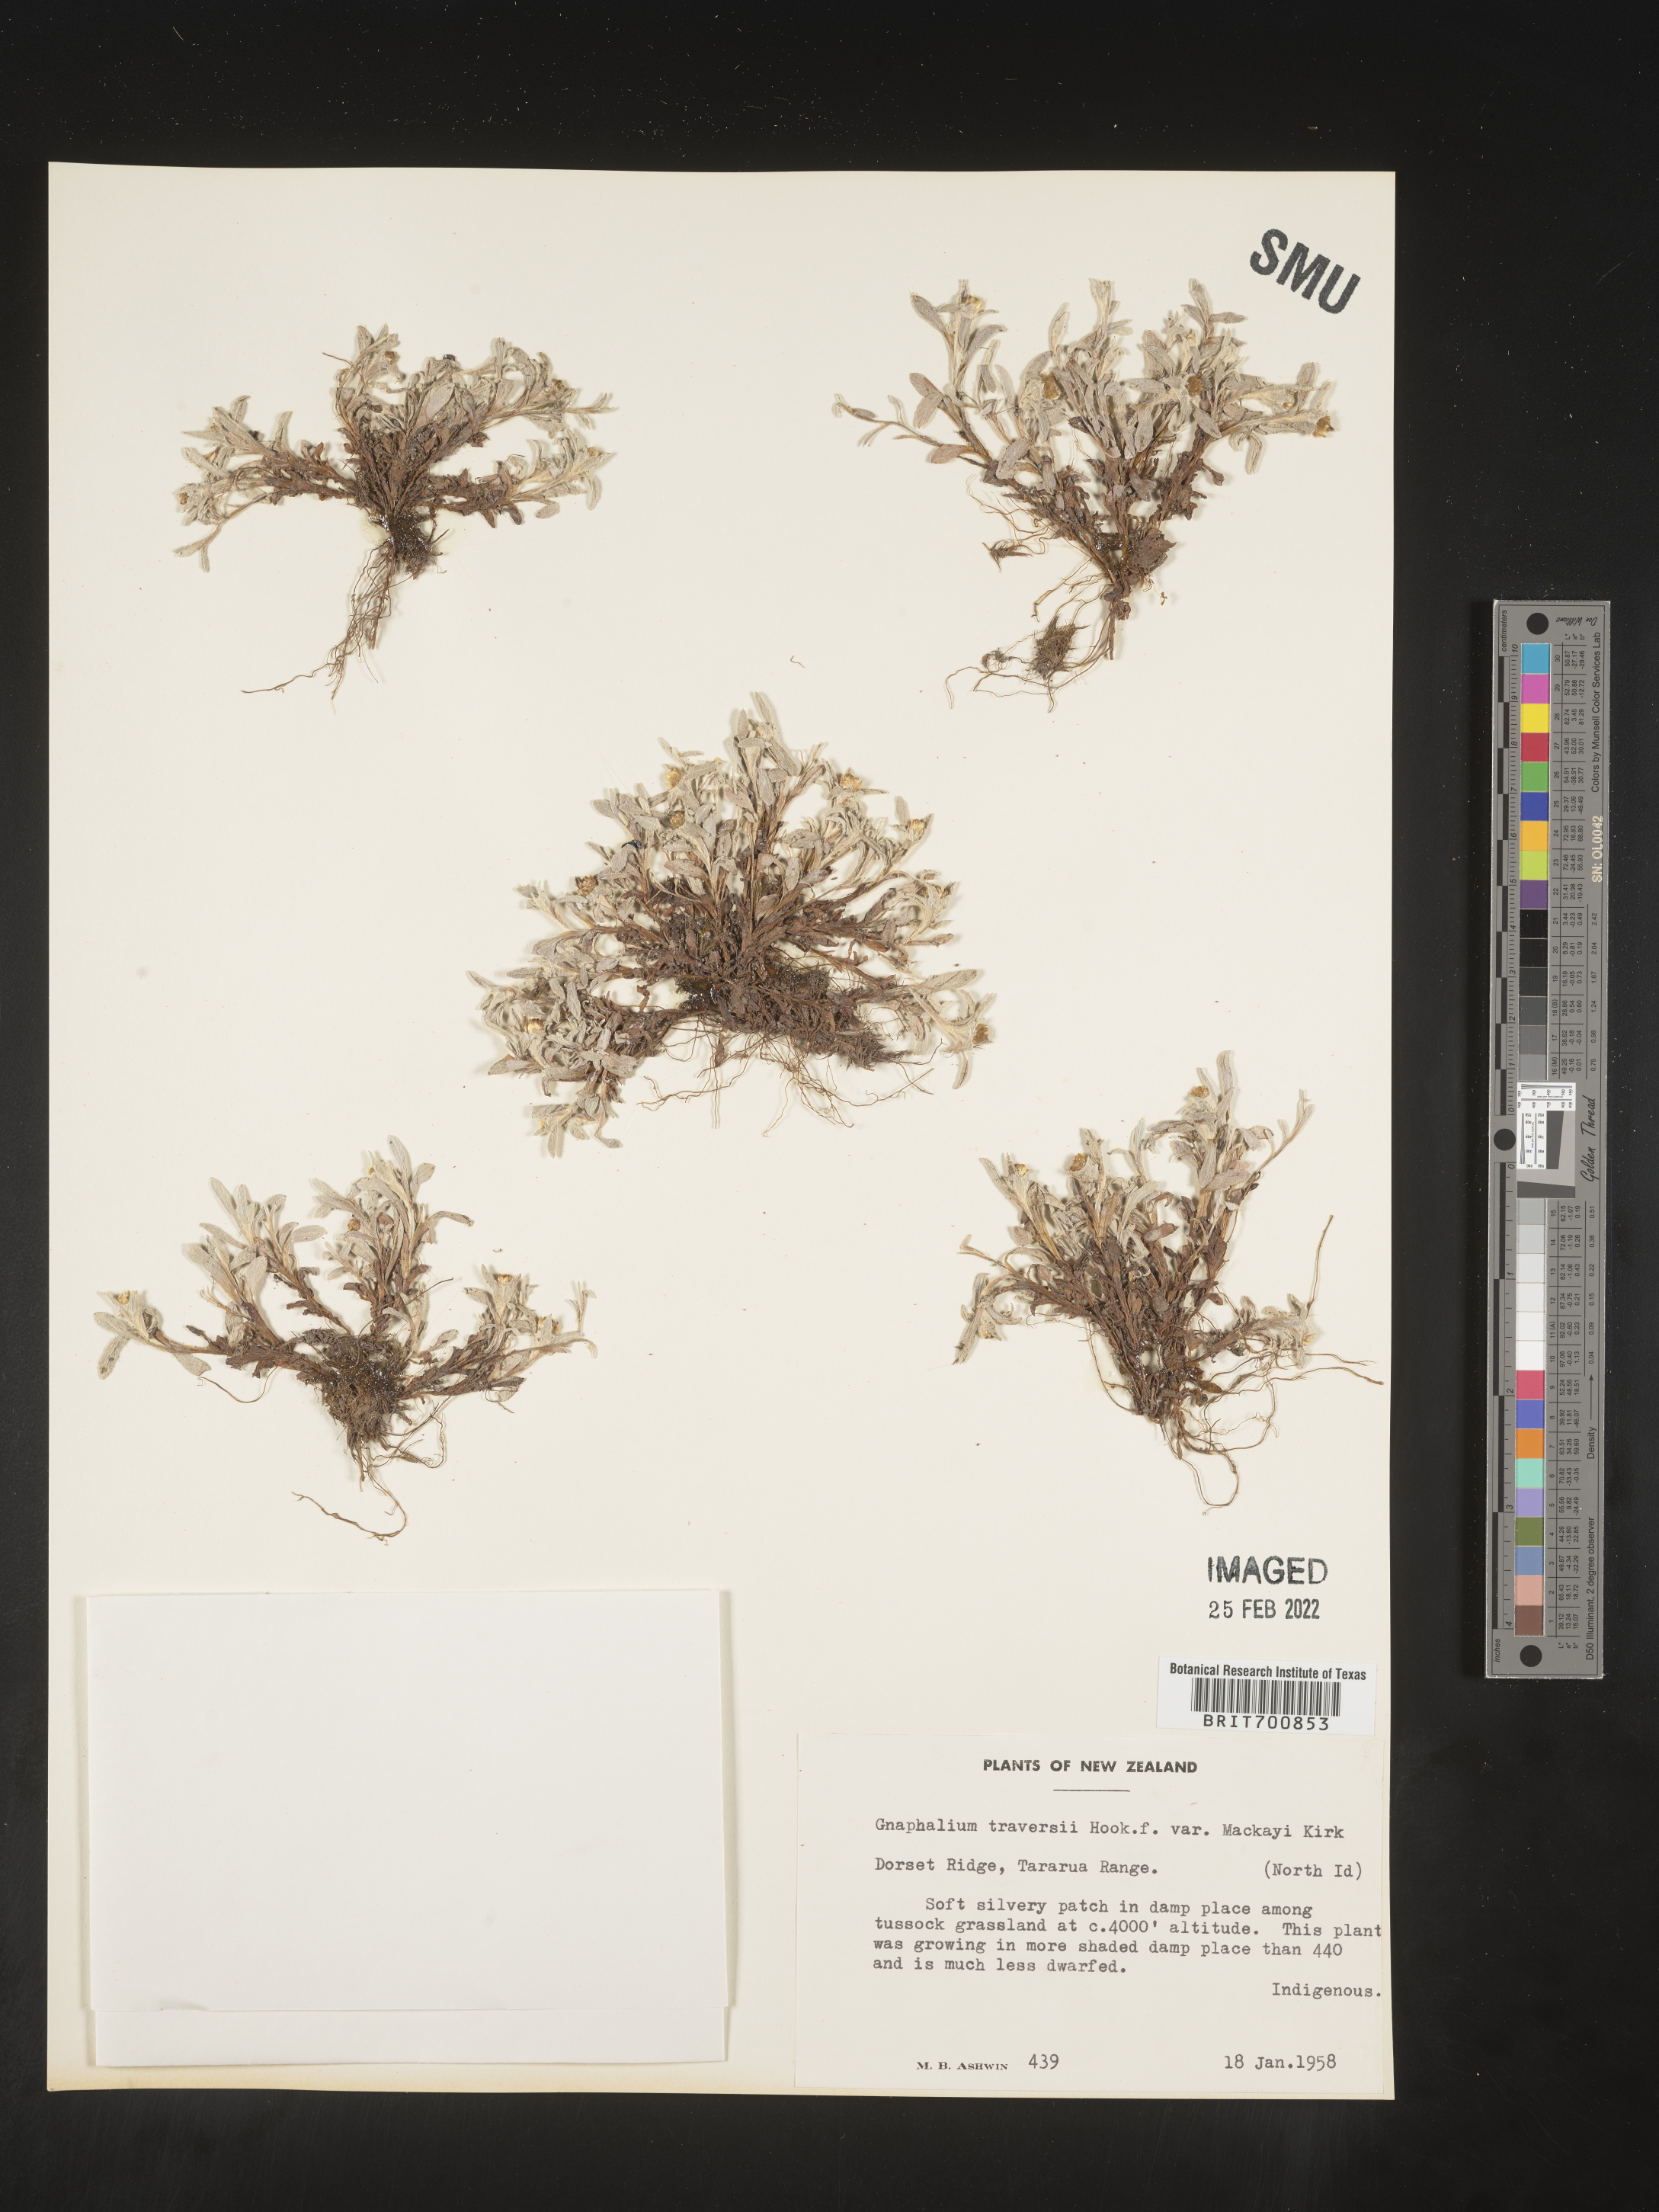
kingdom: Plantae
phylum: Tracheophyta
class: Magnoliopsida
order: Asterales
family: Asteraceae
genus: Euchiton
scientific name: Euchiton
